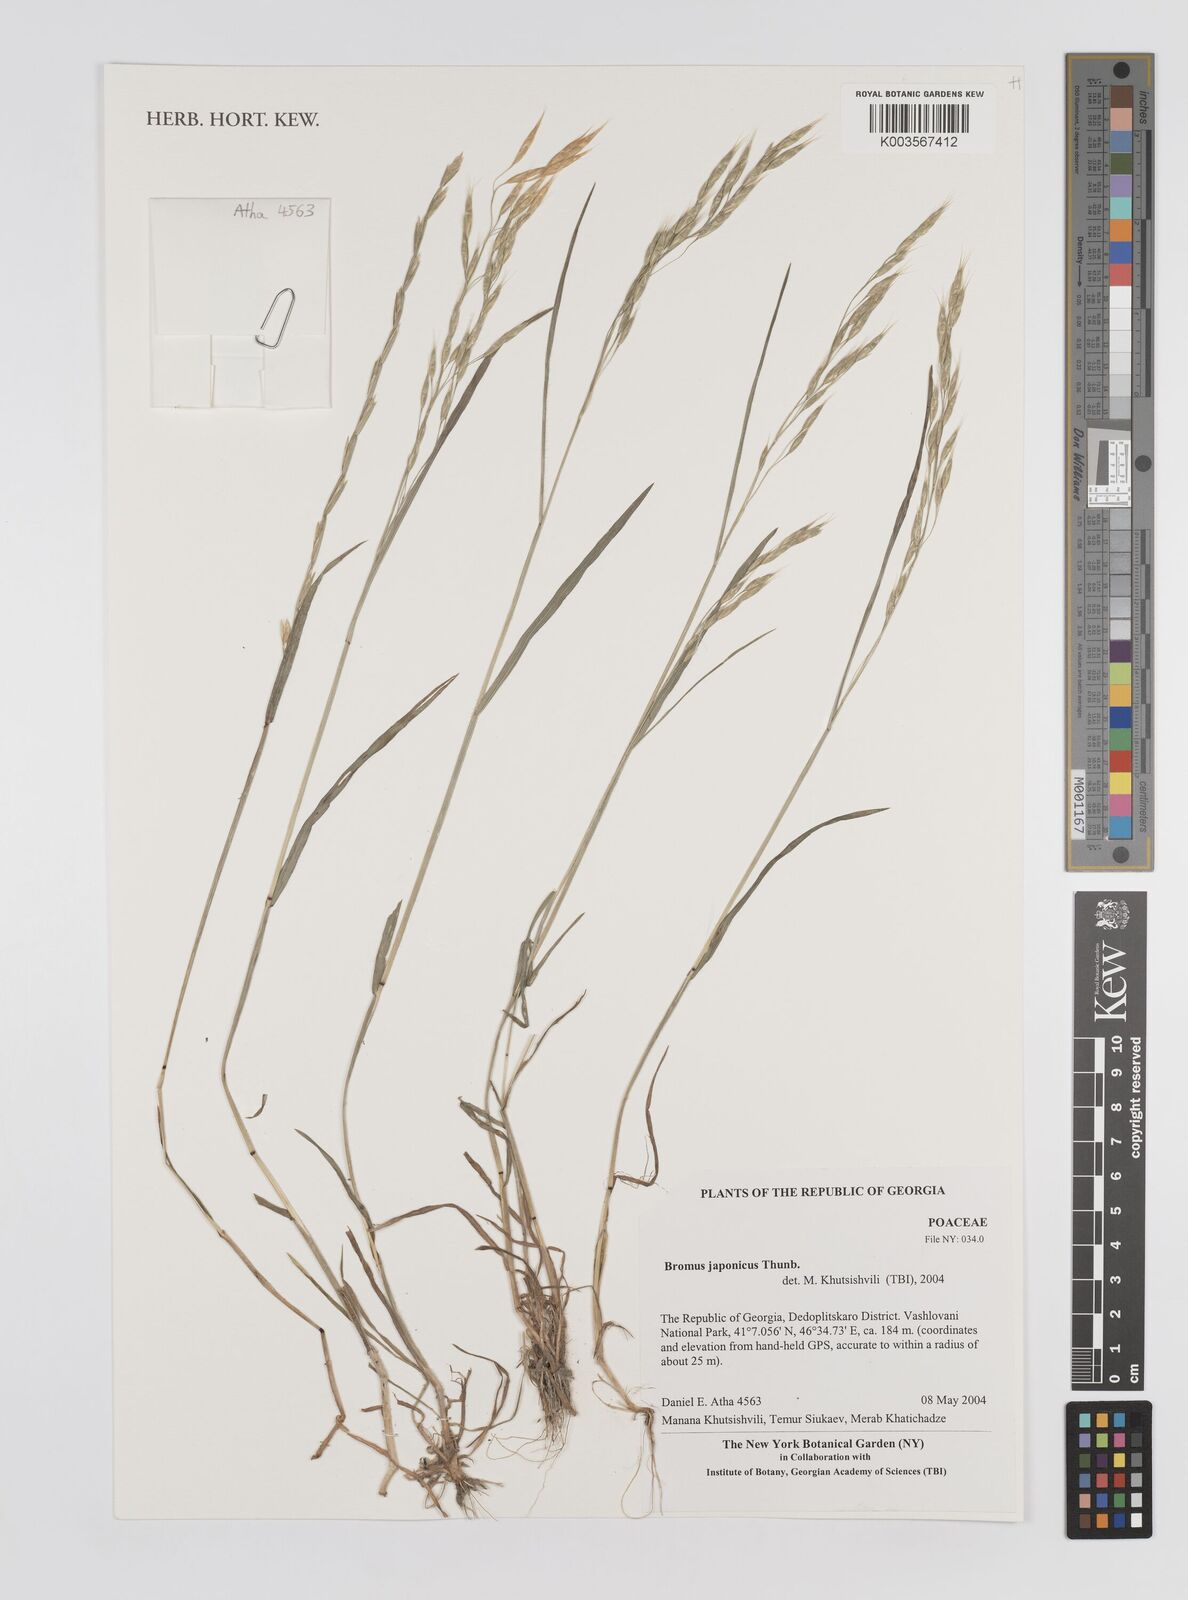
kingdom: Plantae
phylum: Tracheophyta
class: Liliopsida
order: Poales
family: Poaceae
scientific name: Poaceae
